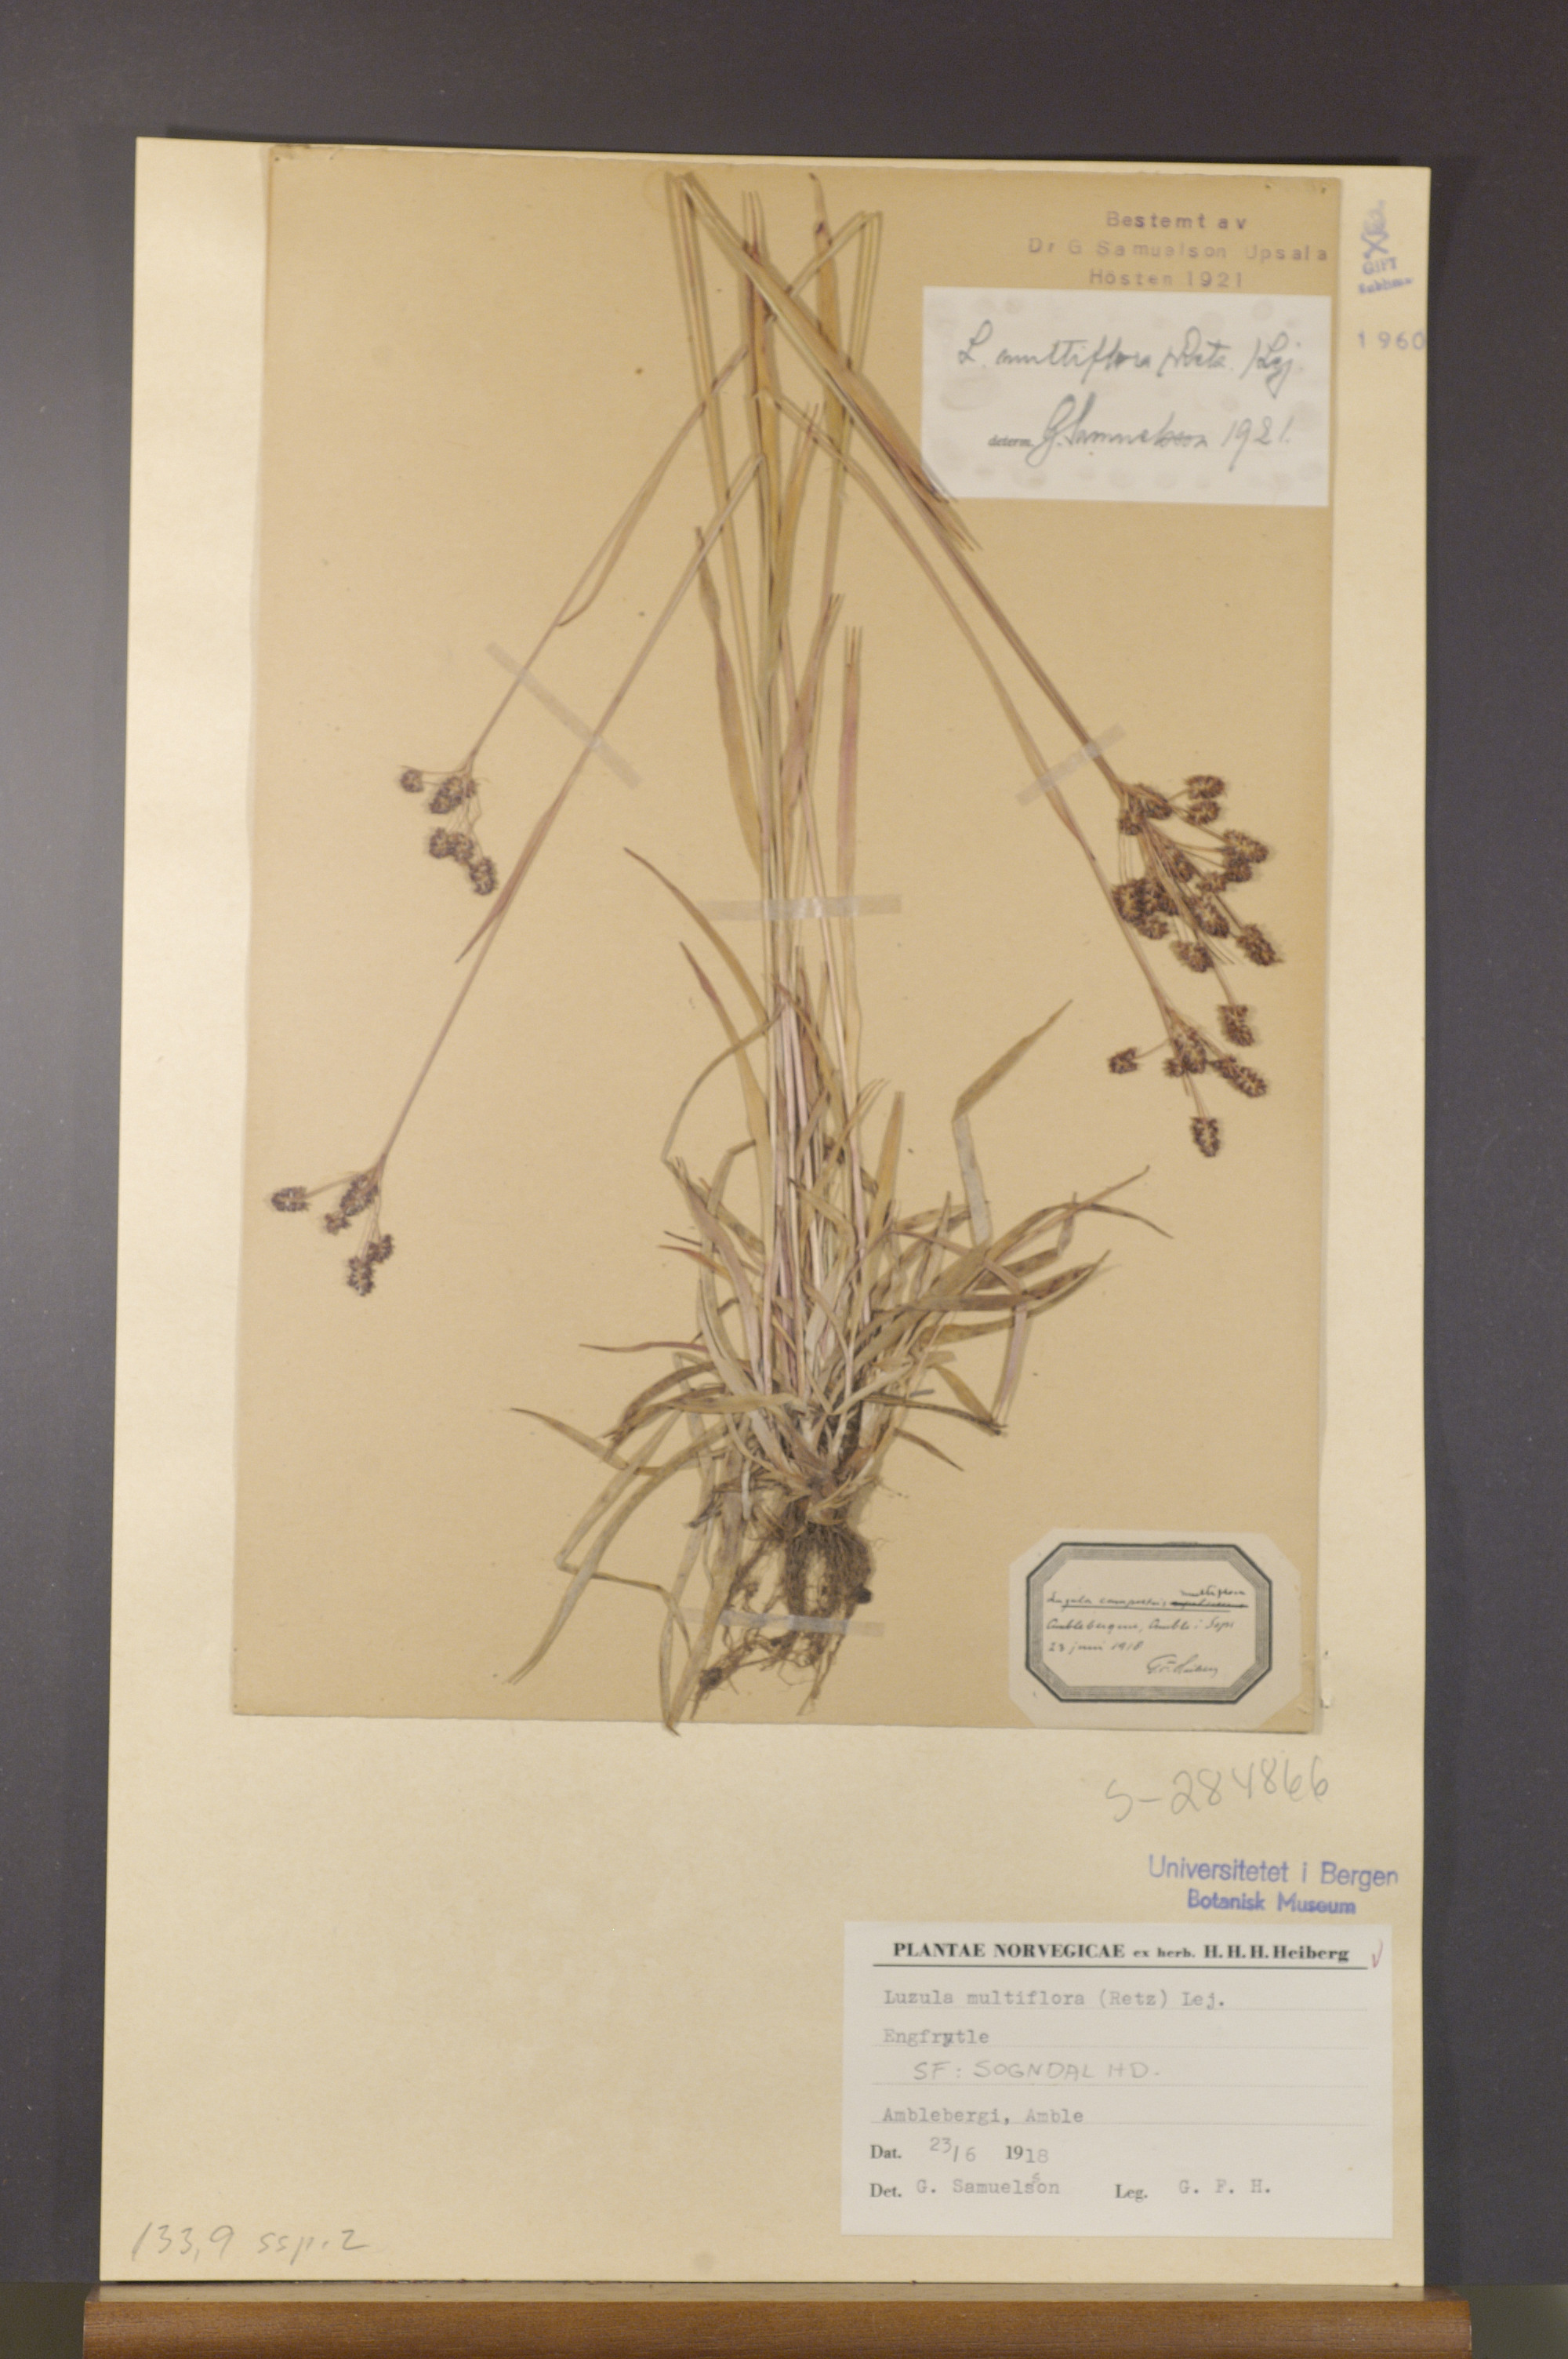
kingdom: Plantae
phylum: Tracheophyta
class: Liliopsida
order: Poales
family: Juncaceae
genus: Luzula
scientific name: Luzula multiflora
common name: Heath wood-rush
